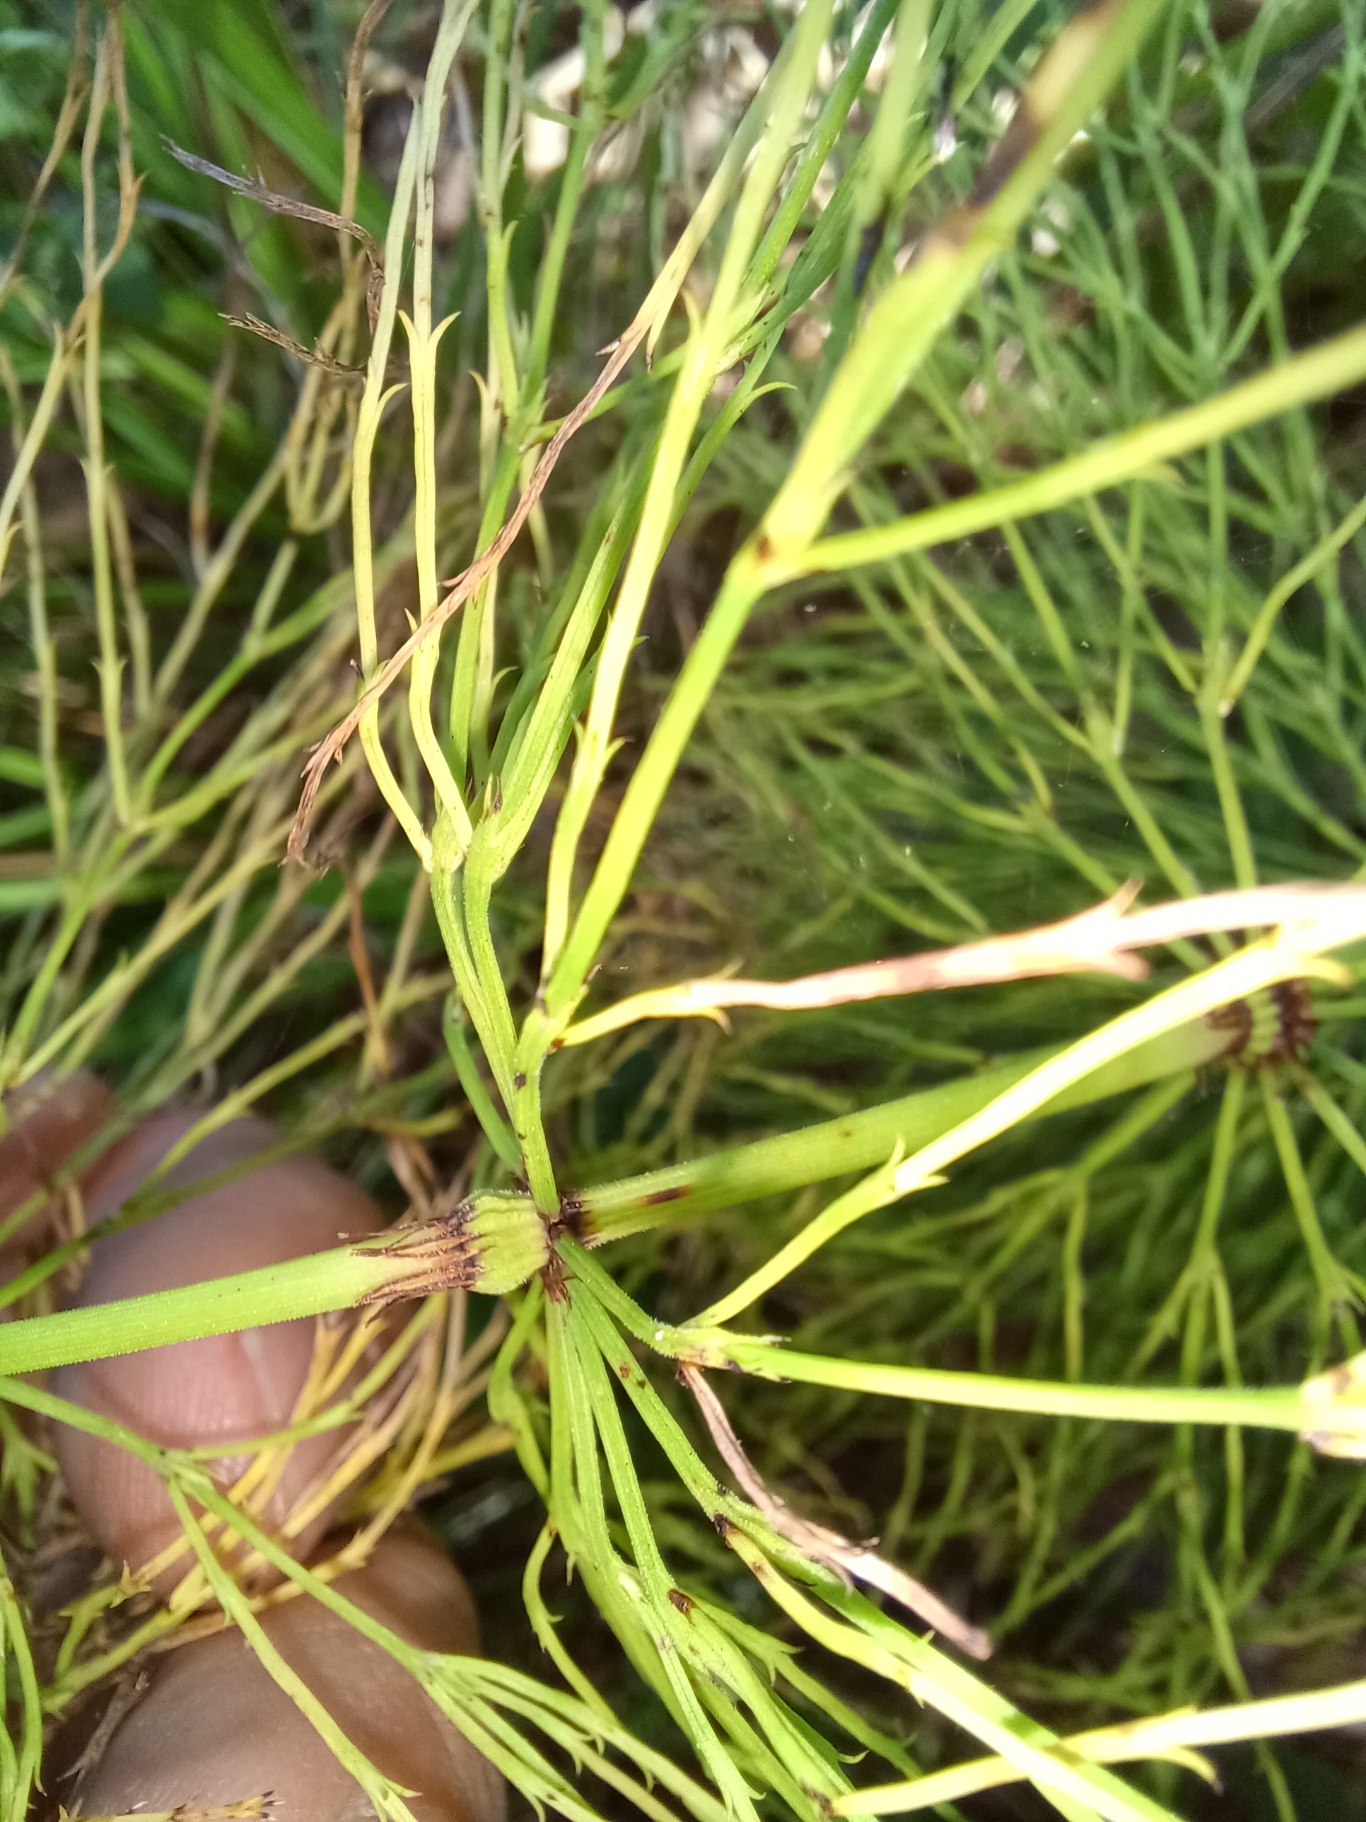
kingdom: Plantae
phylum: Tracheophyta
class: Polypodiopsida
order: Equisetales
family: Equisetaceae
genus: Equisetum
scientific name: Equisetum sylvaticum
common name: Skov-padderok
